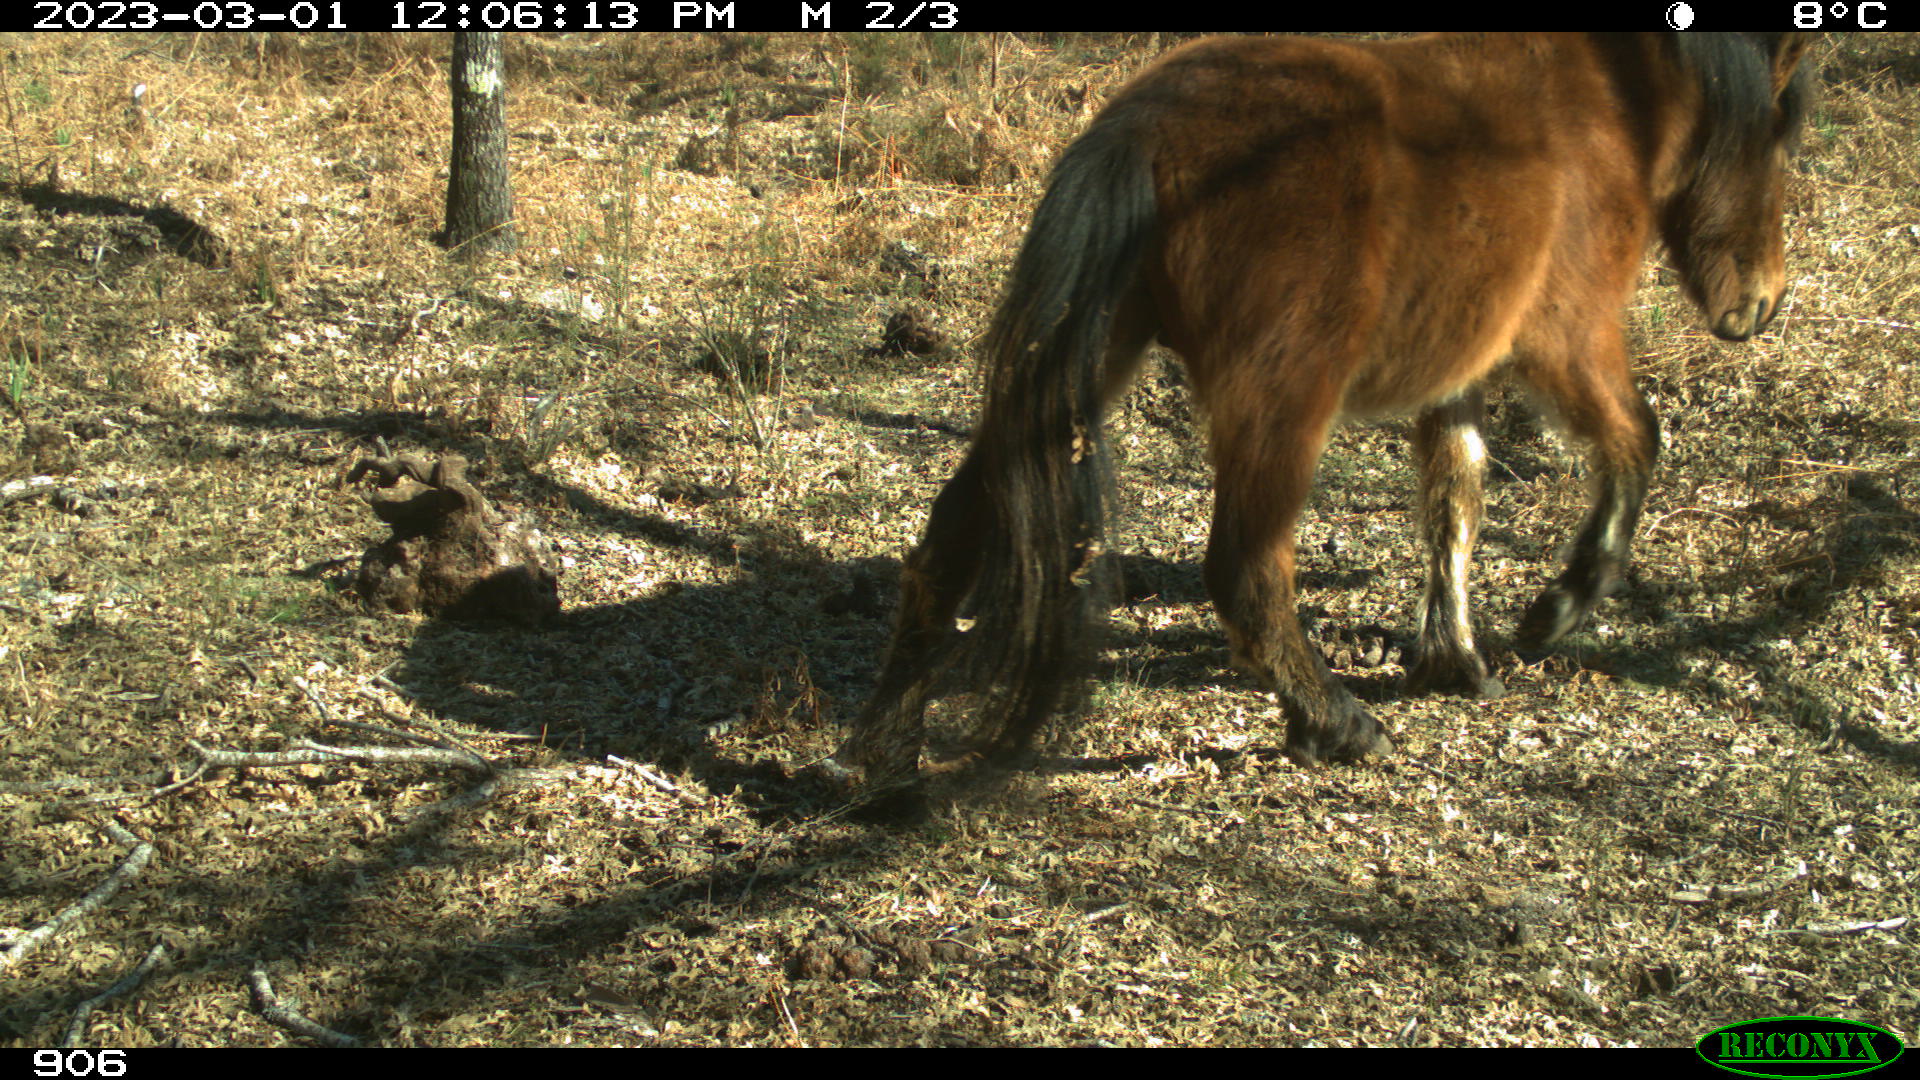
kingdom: Animalia
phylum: Chordata
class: Mammalia
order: Perissodactyla
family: Equidae
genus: Equus
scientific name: Equus caballus
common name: Horse
